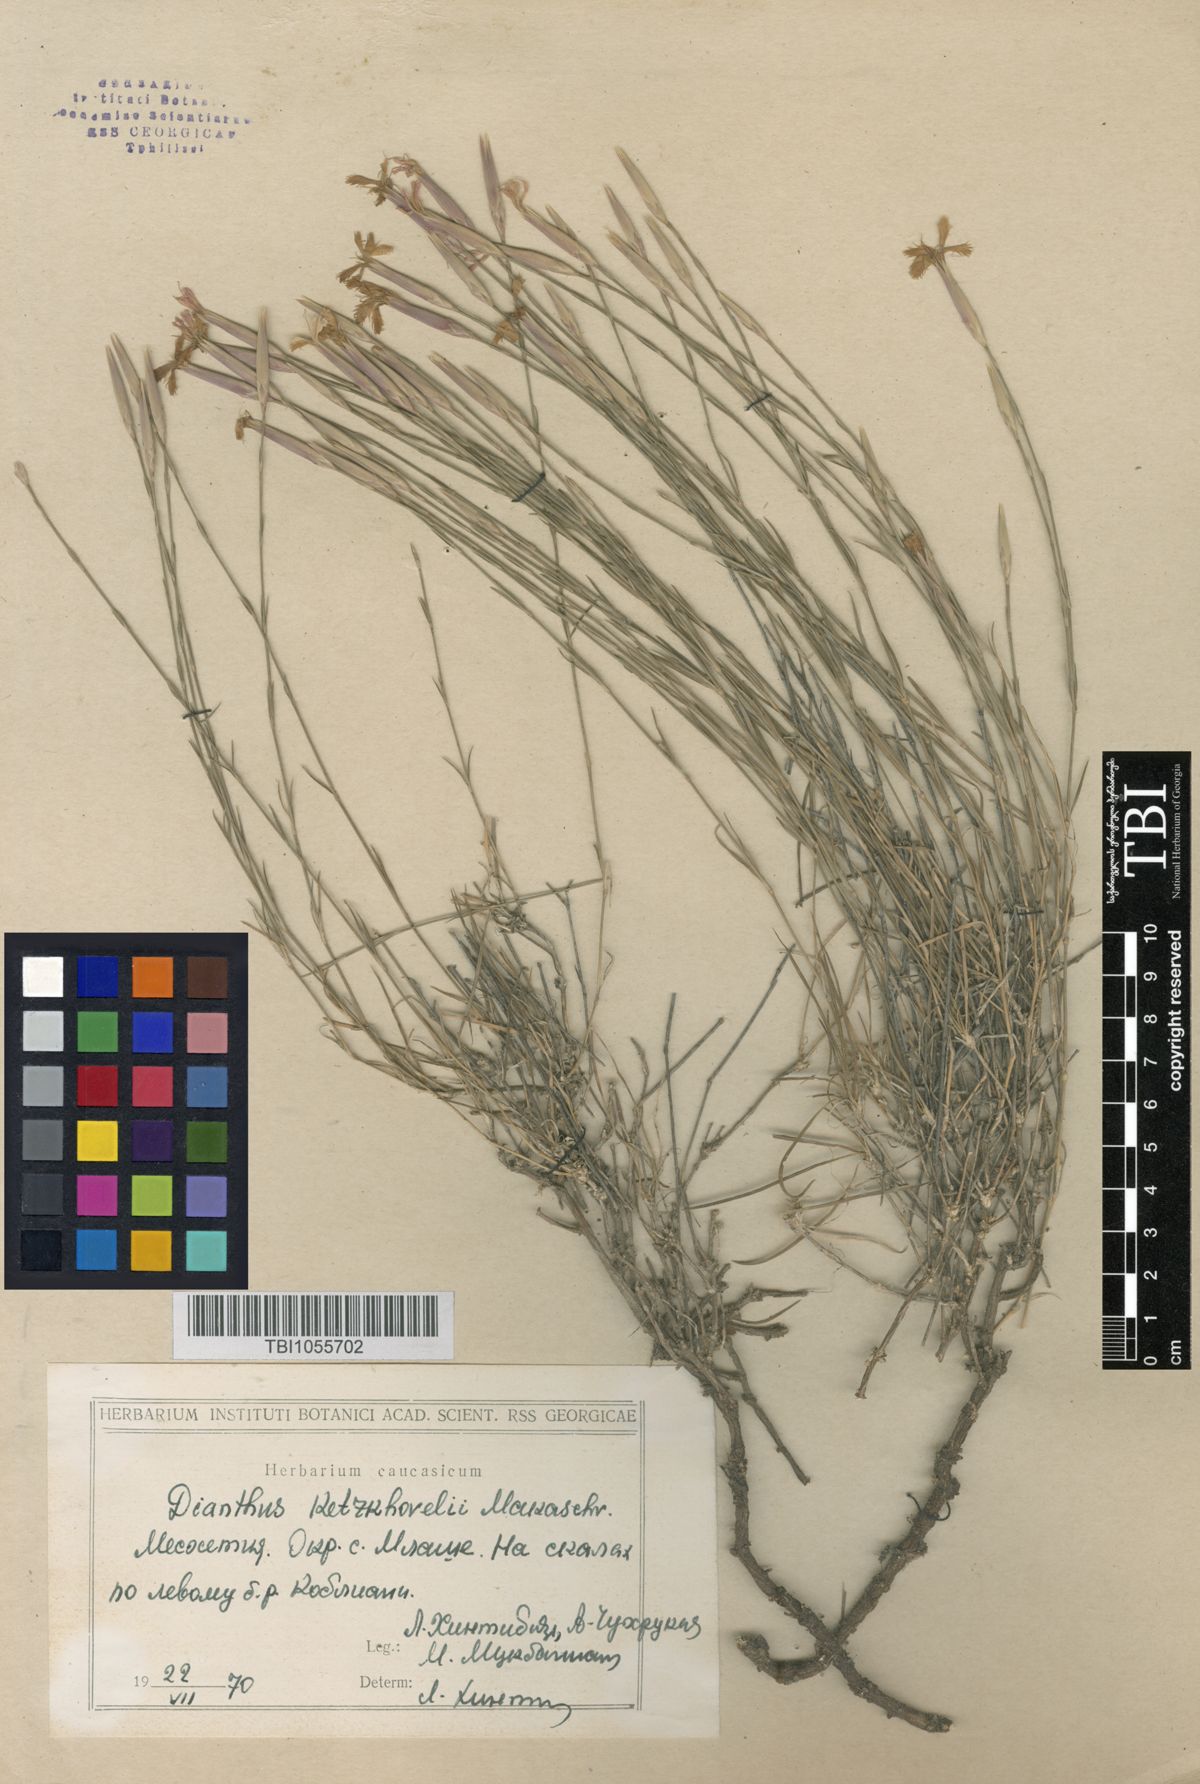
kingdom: Plantae
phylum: Tracheophyta
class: Magnoliopsida
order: Caryophyllales
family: Caryophyllaceae
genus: Dianthus
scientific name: Dianthus orientalis
